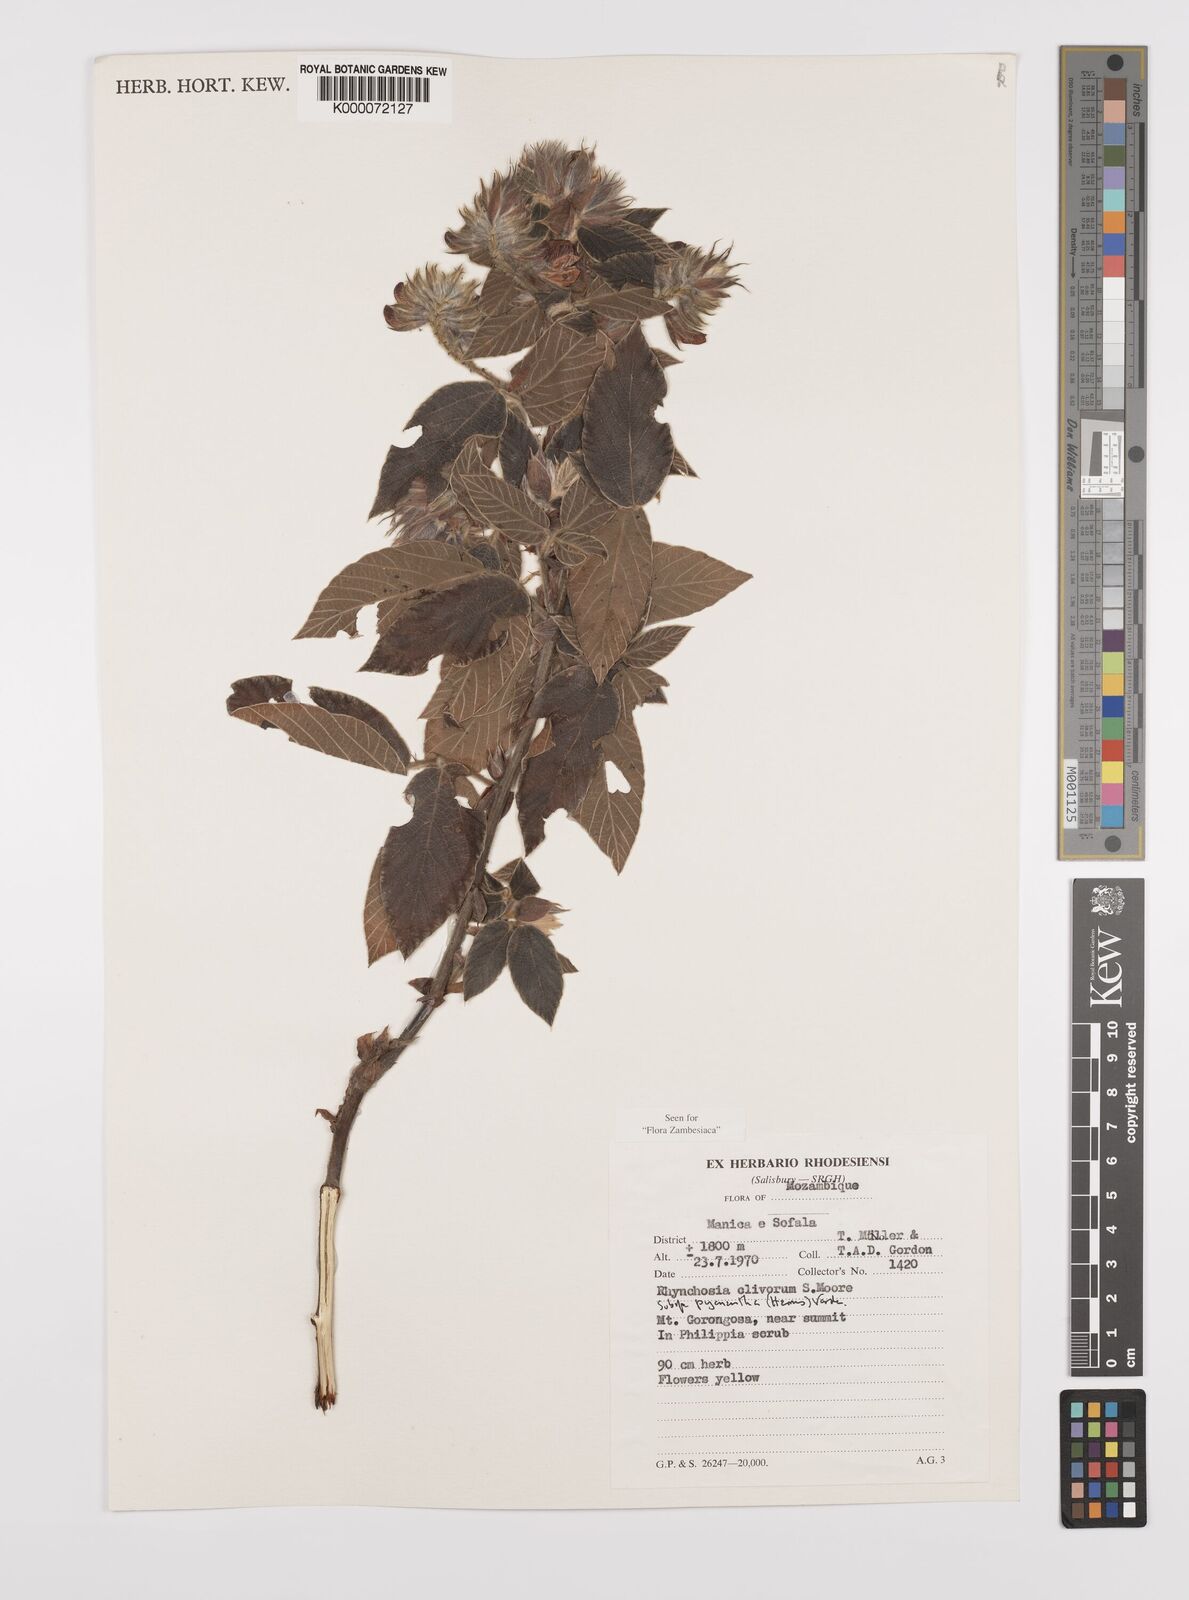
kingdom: Plantae
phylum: Tracheophyta
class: Magnoliopsida
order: Fabales
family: Fabaceae
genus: Rhynchosia
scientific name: Rhynchosia clivorum
